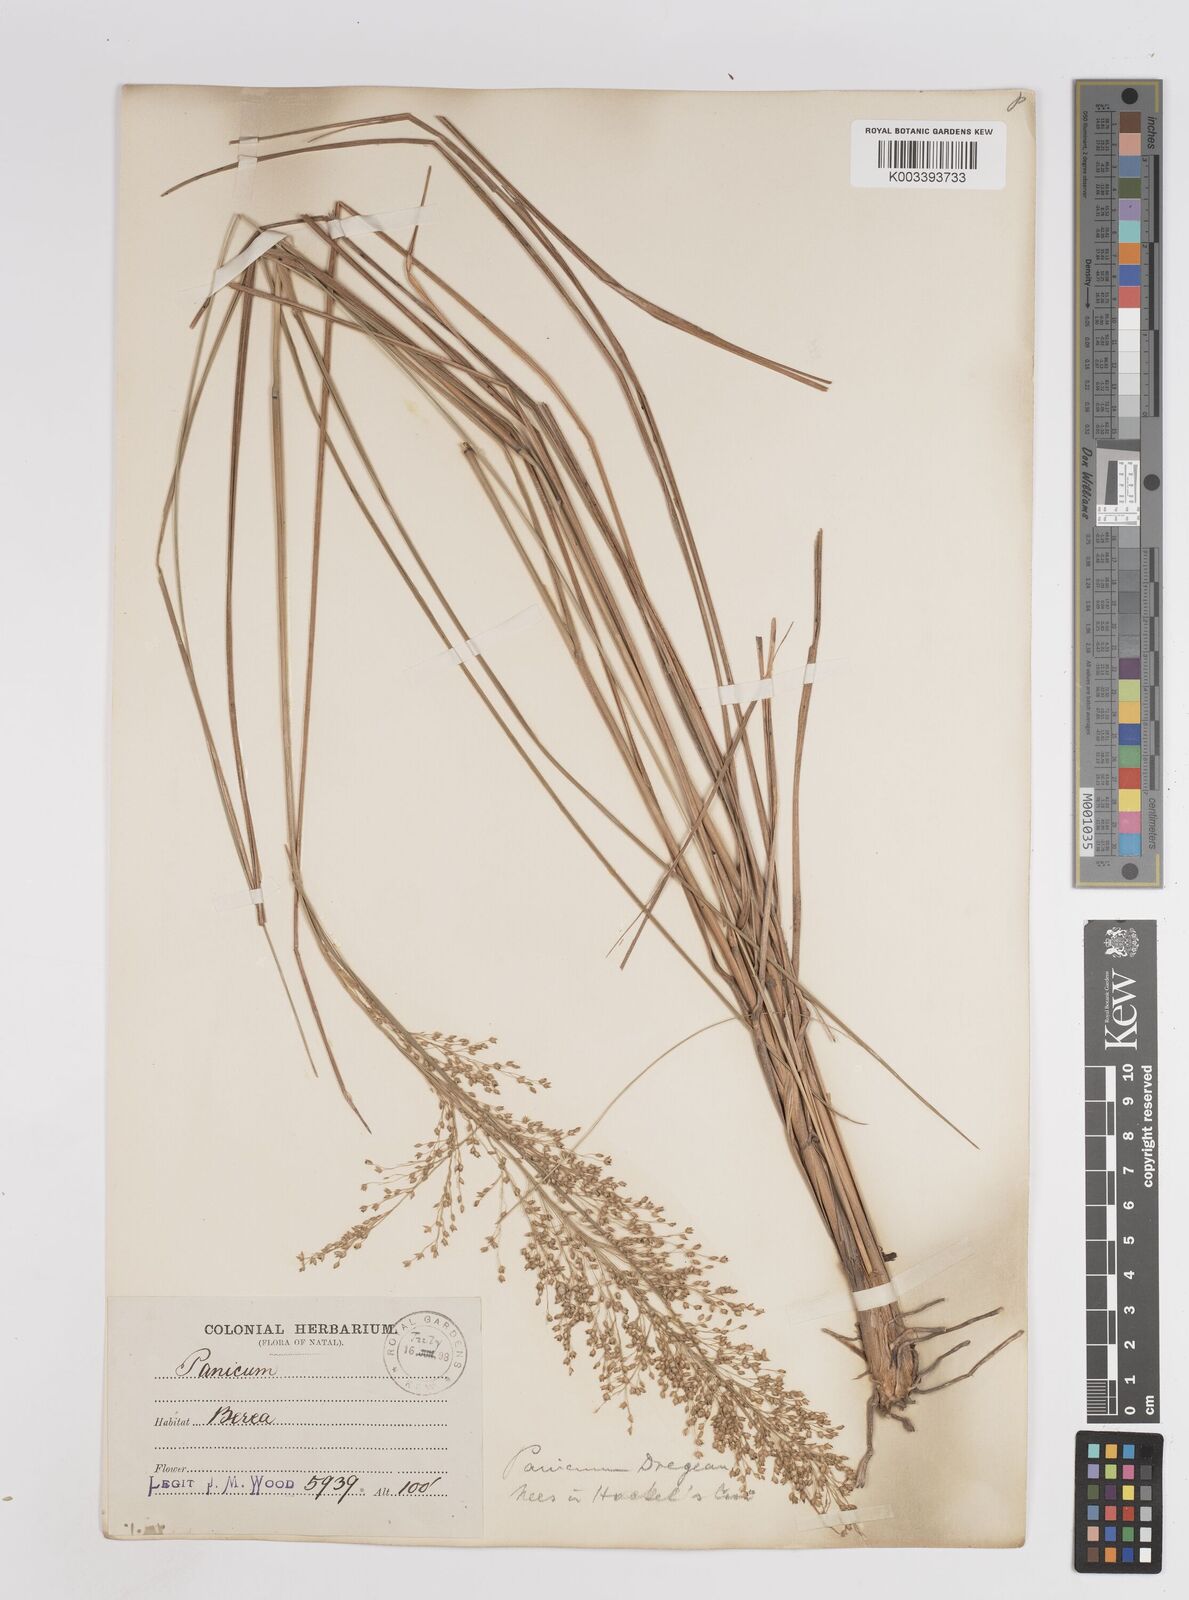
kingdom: Plantae
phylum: Tracheophyta
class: Liliopsida
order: Poales
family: Poaceae
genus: Panicum
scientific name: Panicum dregeanum
